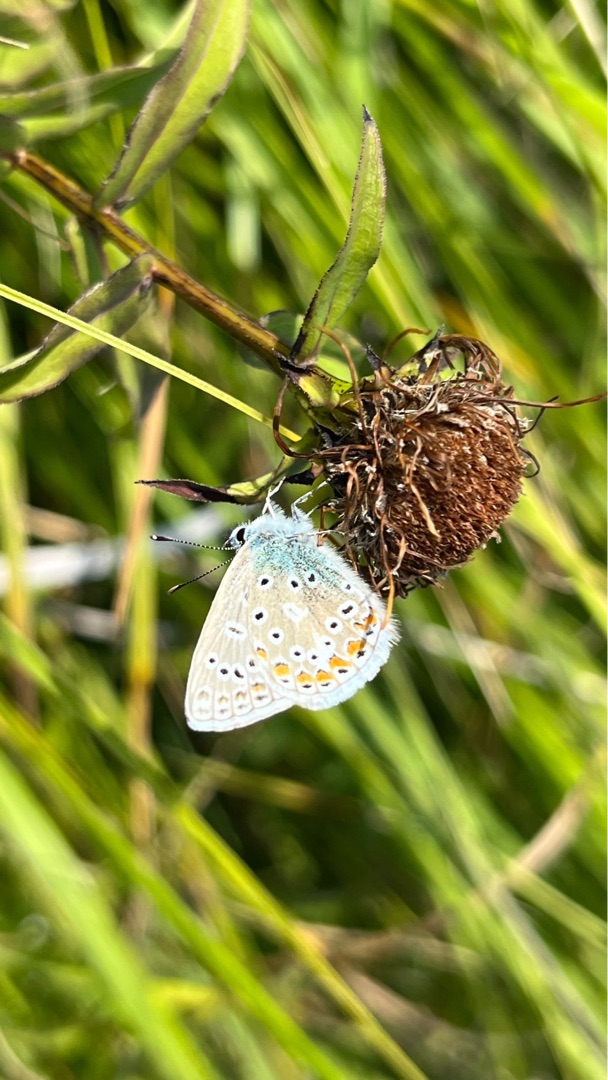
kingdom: Animalia
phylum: Arthropoda
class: Insecta
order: Lepidoptera
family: Lycaenidae
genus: Polyommatus
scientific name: Polyommatus icarus
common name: Almindelig blåfugl
